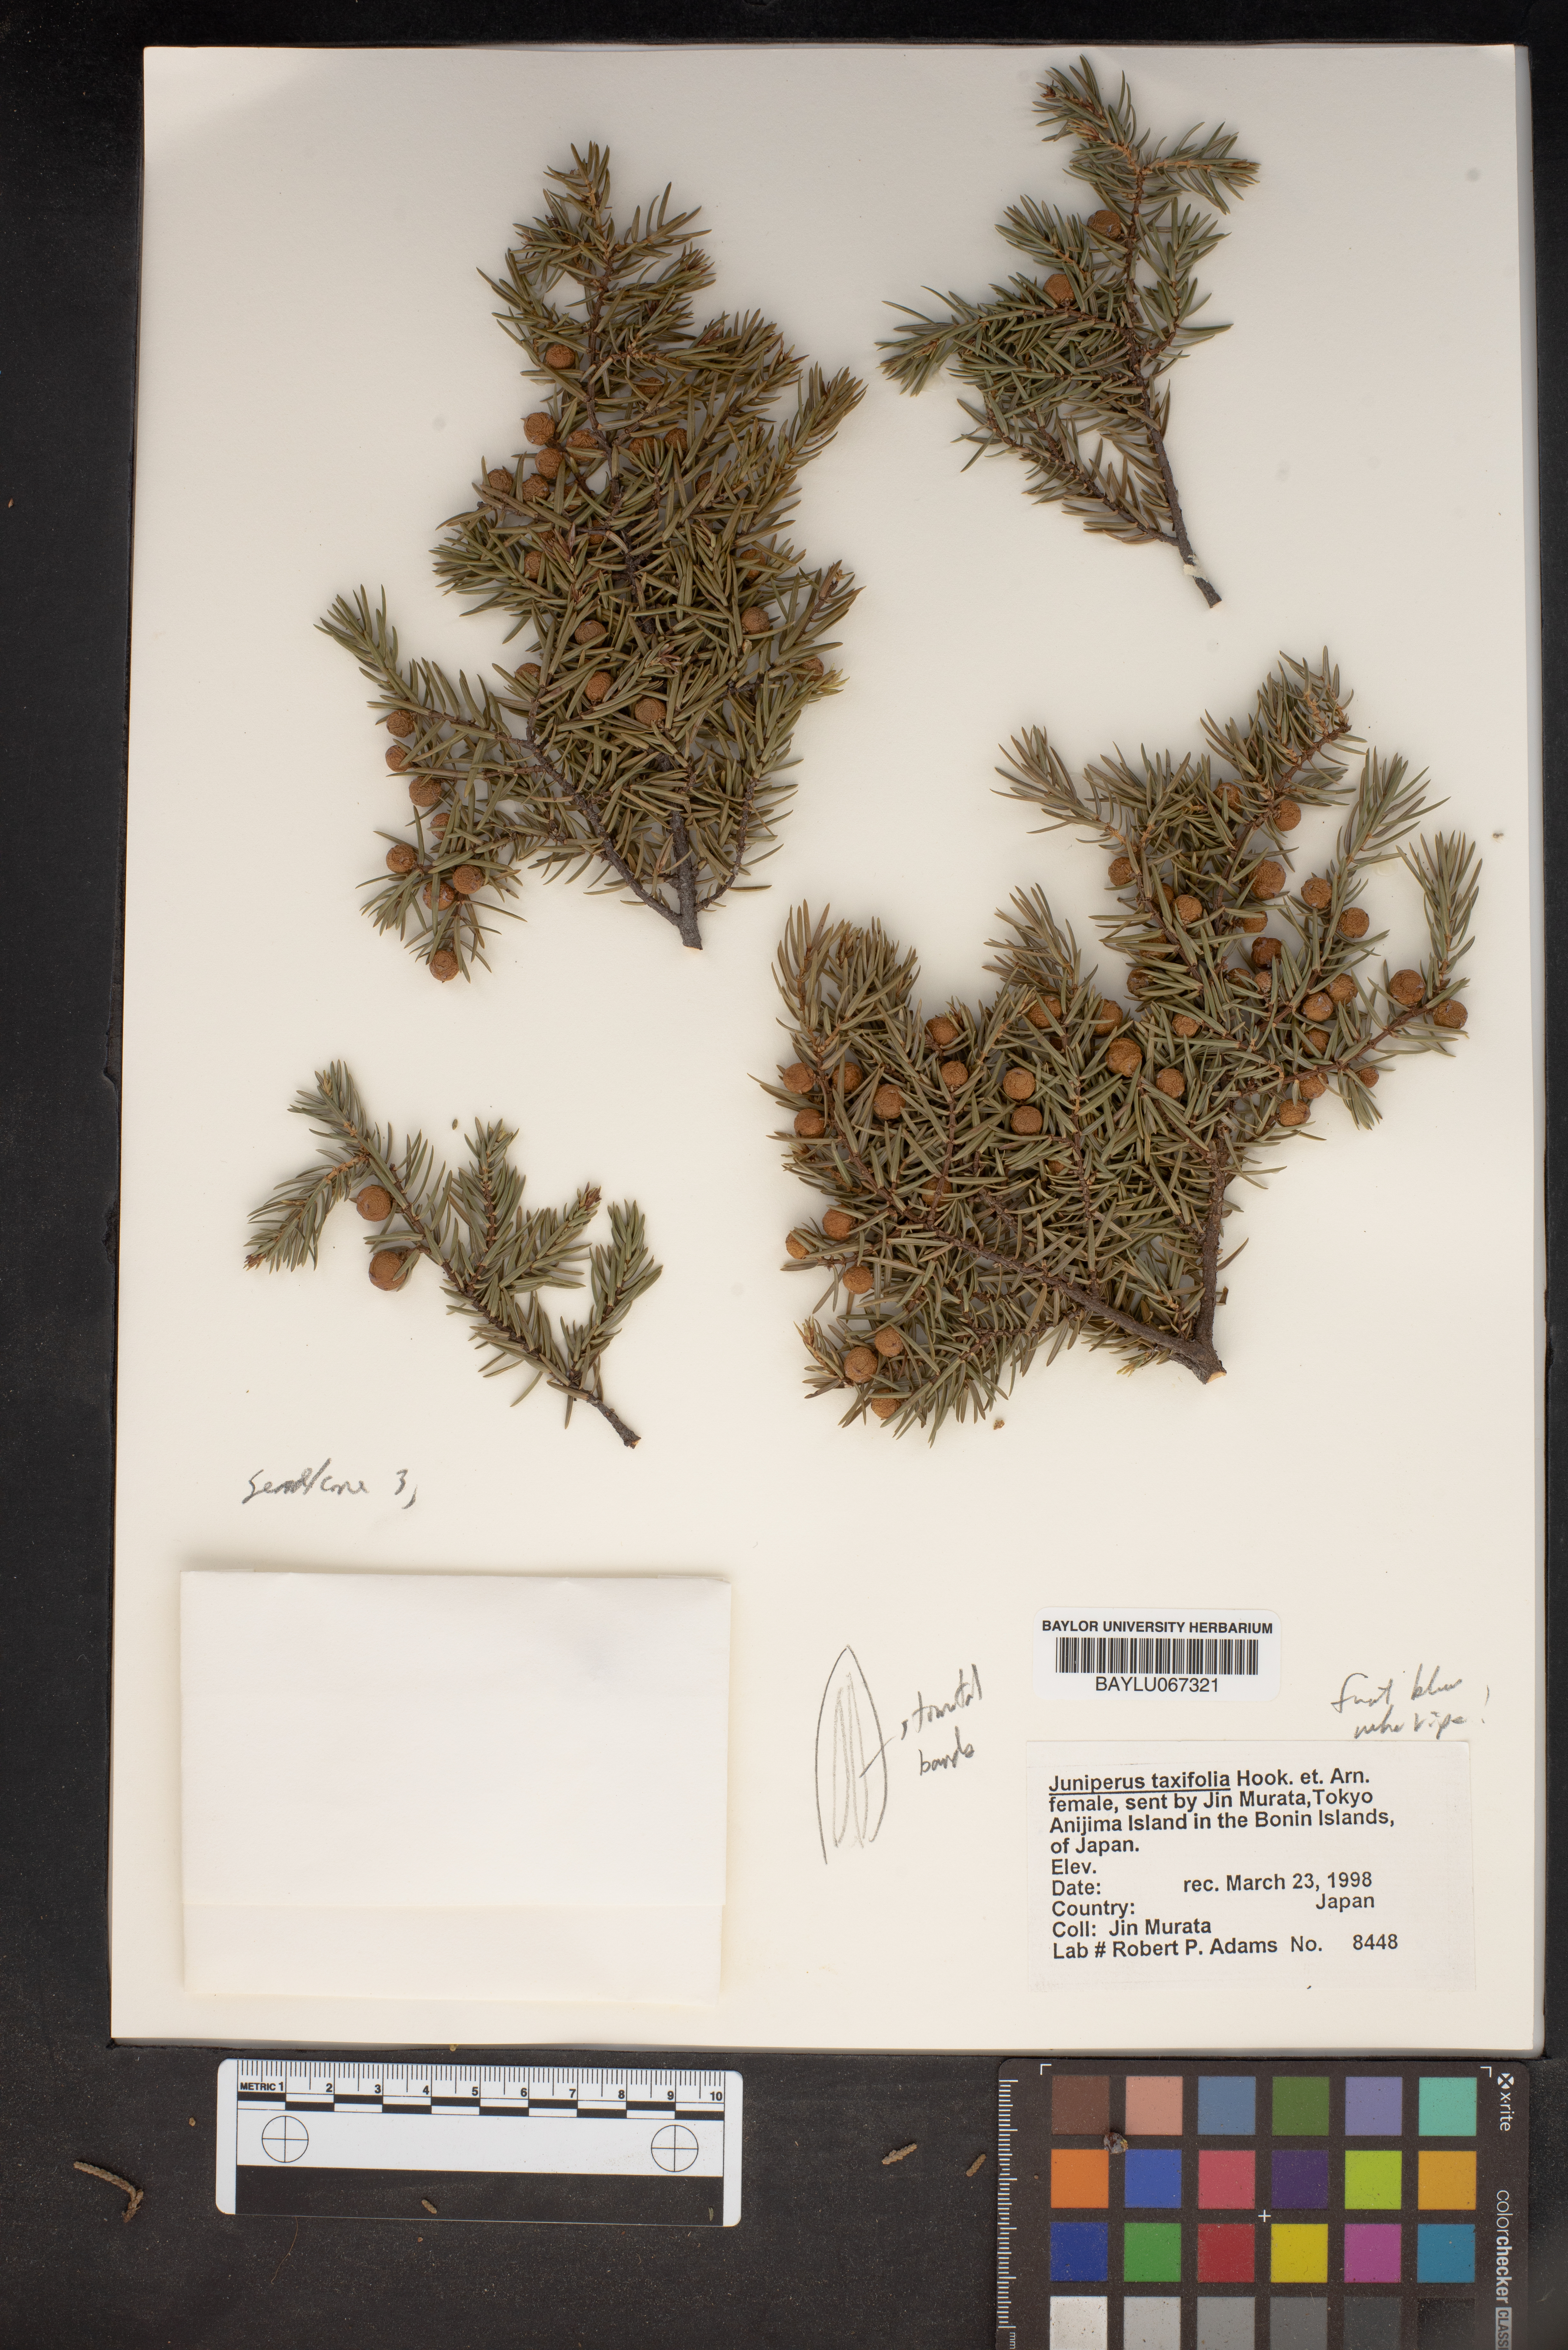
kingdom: Plantae
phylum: Tracheophyta
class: Pinopsida
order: Pinales
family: Cupressaceae
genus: Juniperus
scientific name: Juniperus taxifolia
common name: Fitcheisi
